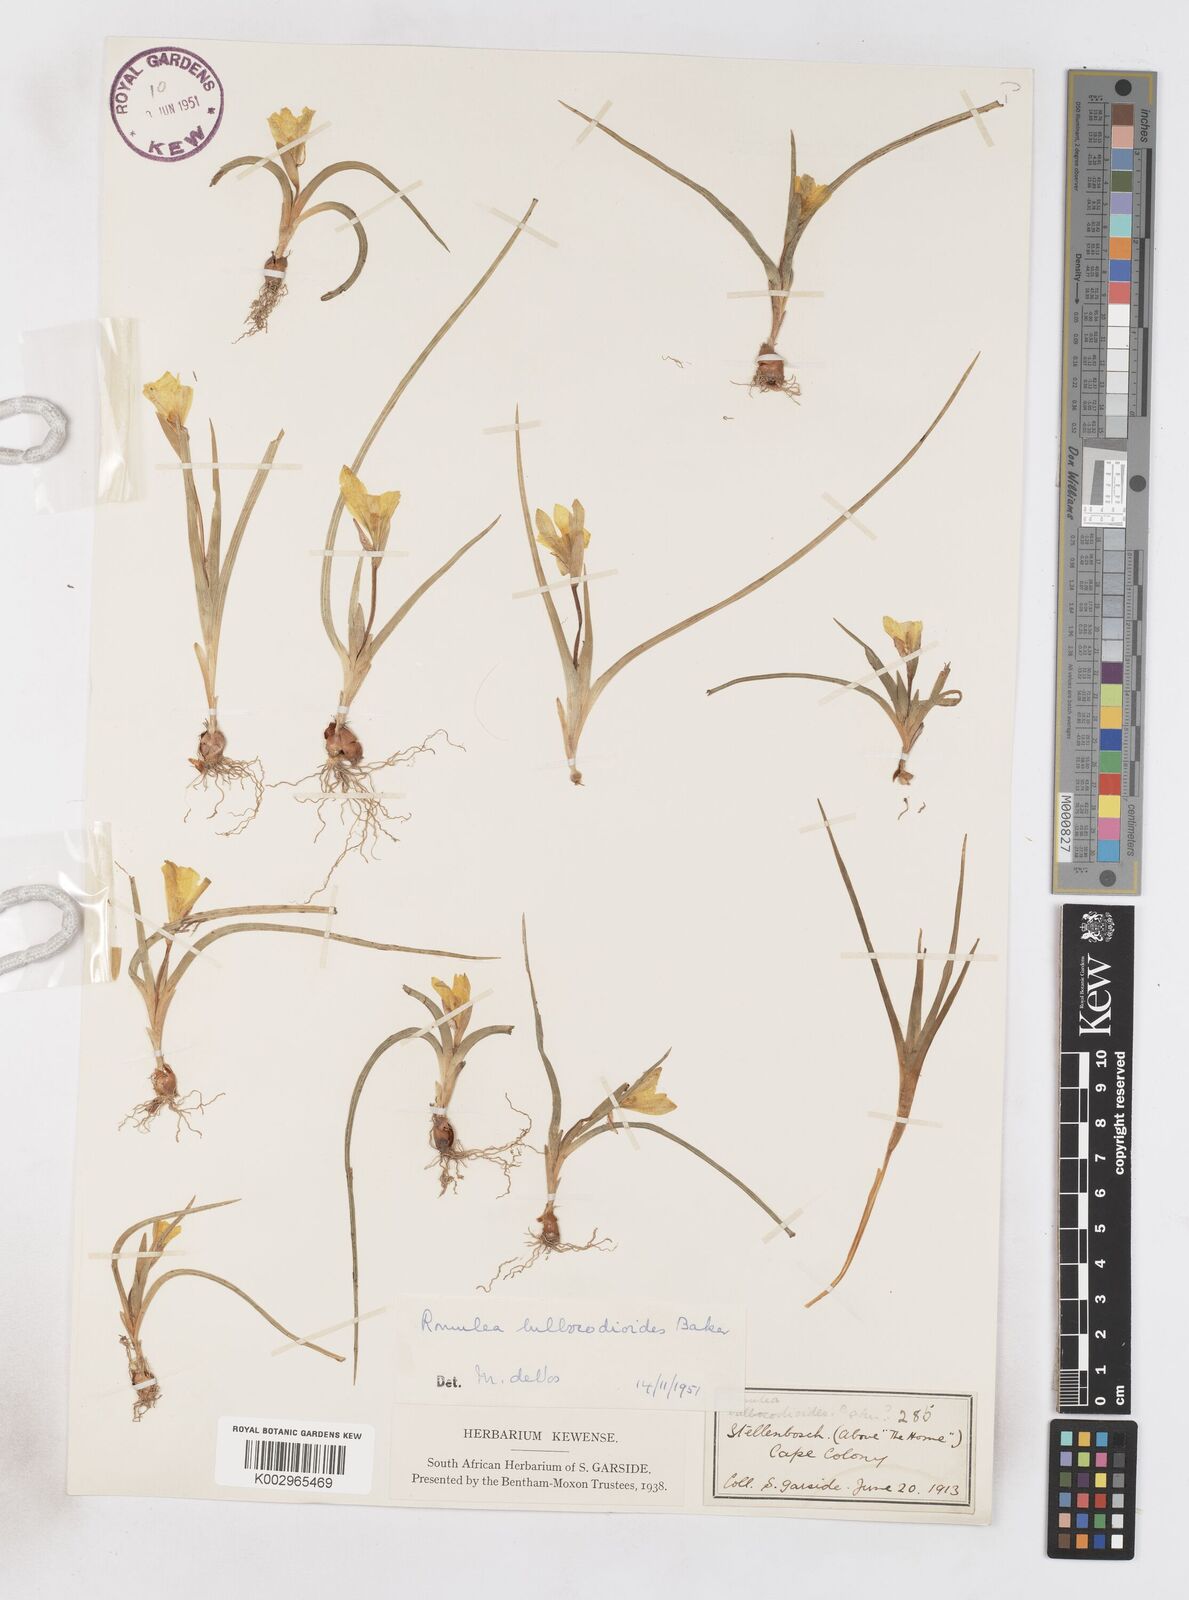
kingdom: Plantae
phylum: Tracheophyta
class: Liliopsida
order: Asparagales
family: Iridaceae
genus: Romulea
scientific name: Romulea flava
